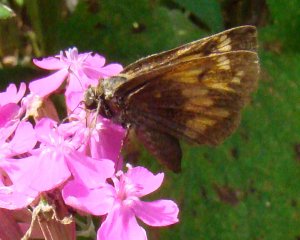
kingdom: Animalia
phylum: Arthropoda
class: Insecta
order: Lepidoptera
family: Hesperiidae
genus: Polites
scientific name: Polites
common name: Long Dash Skipper
